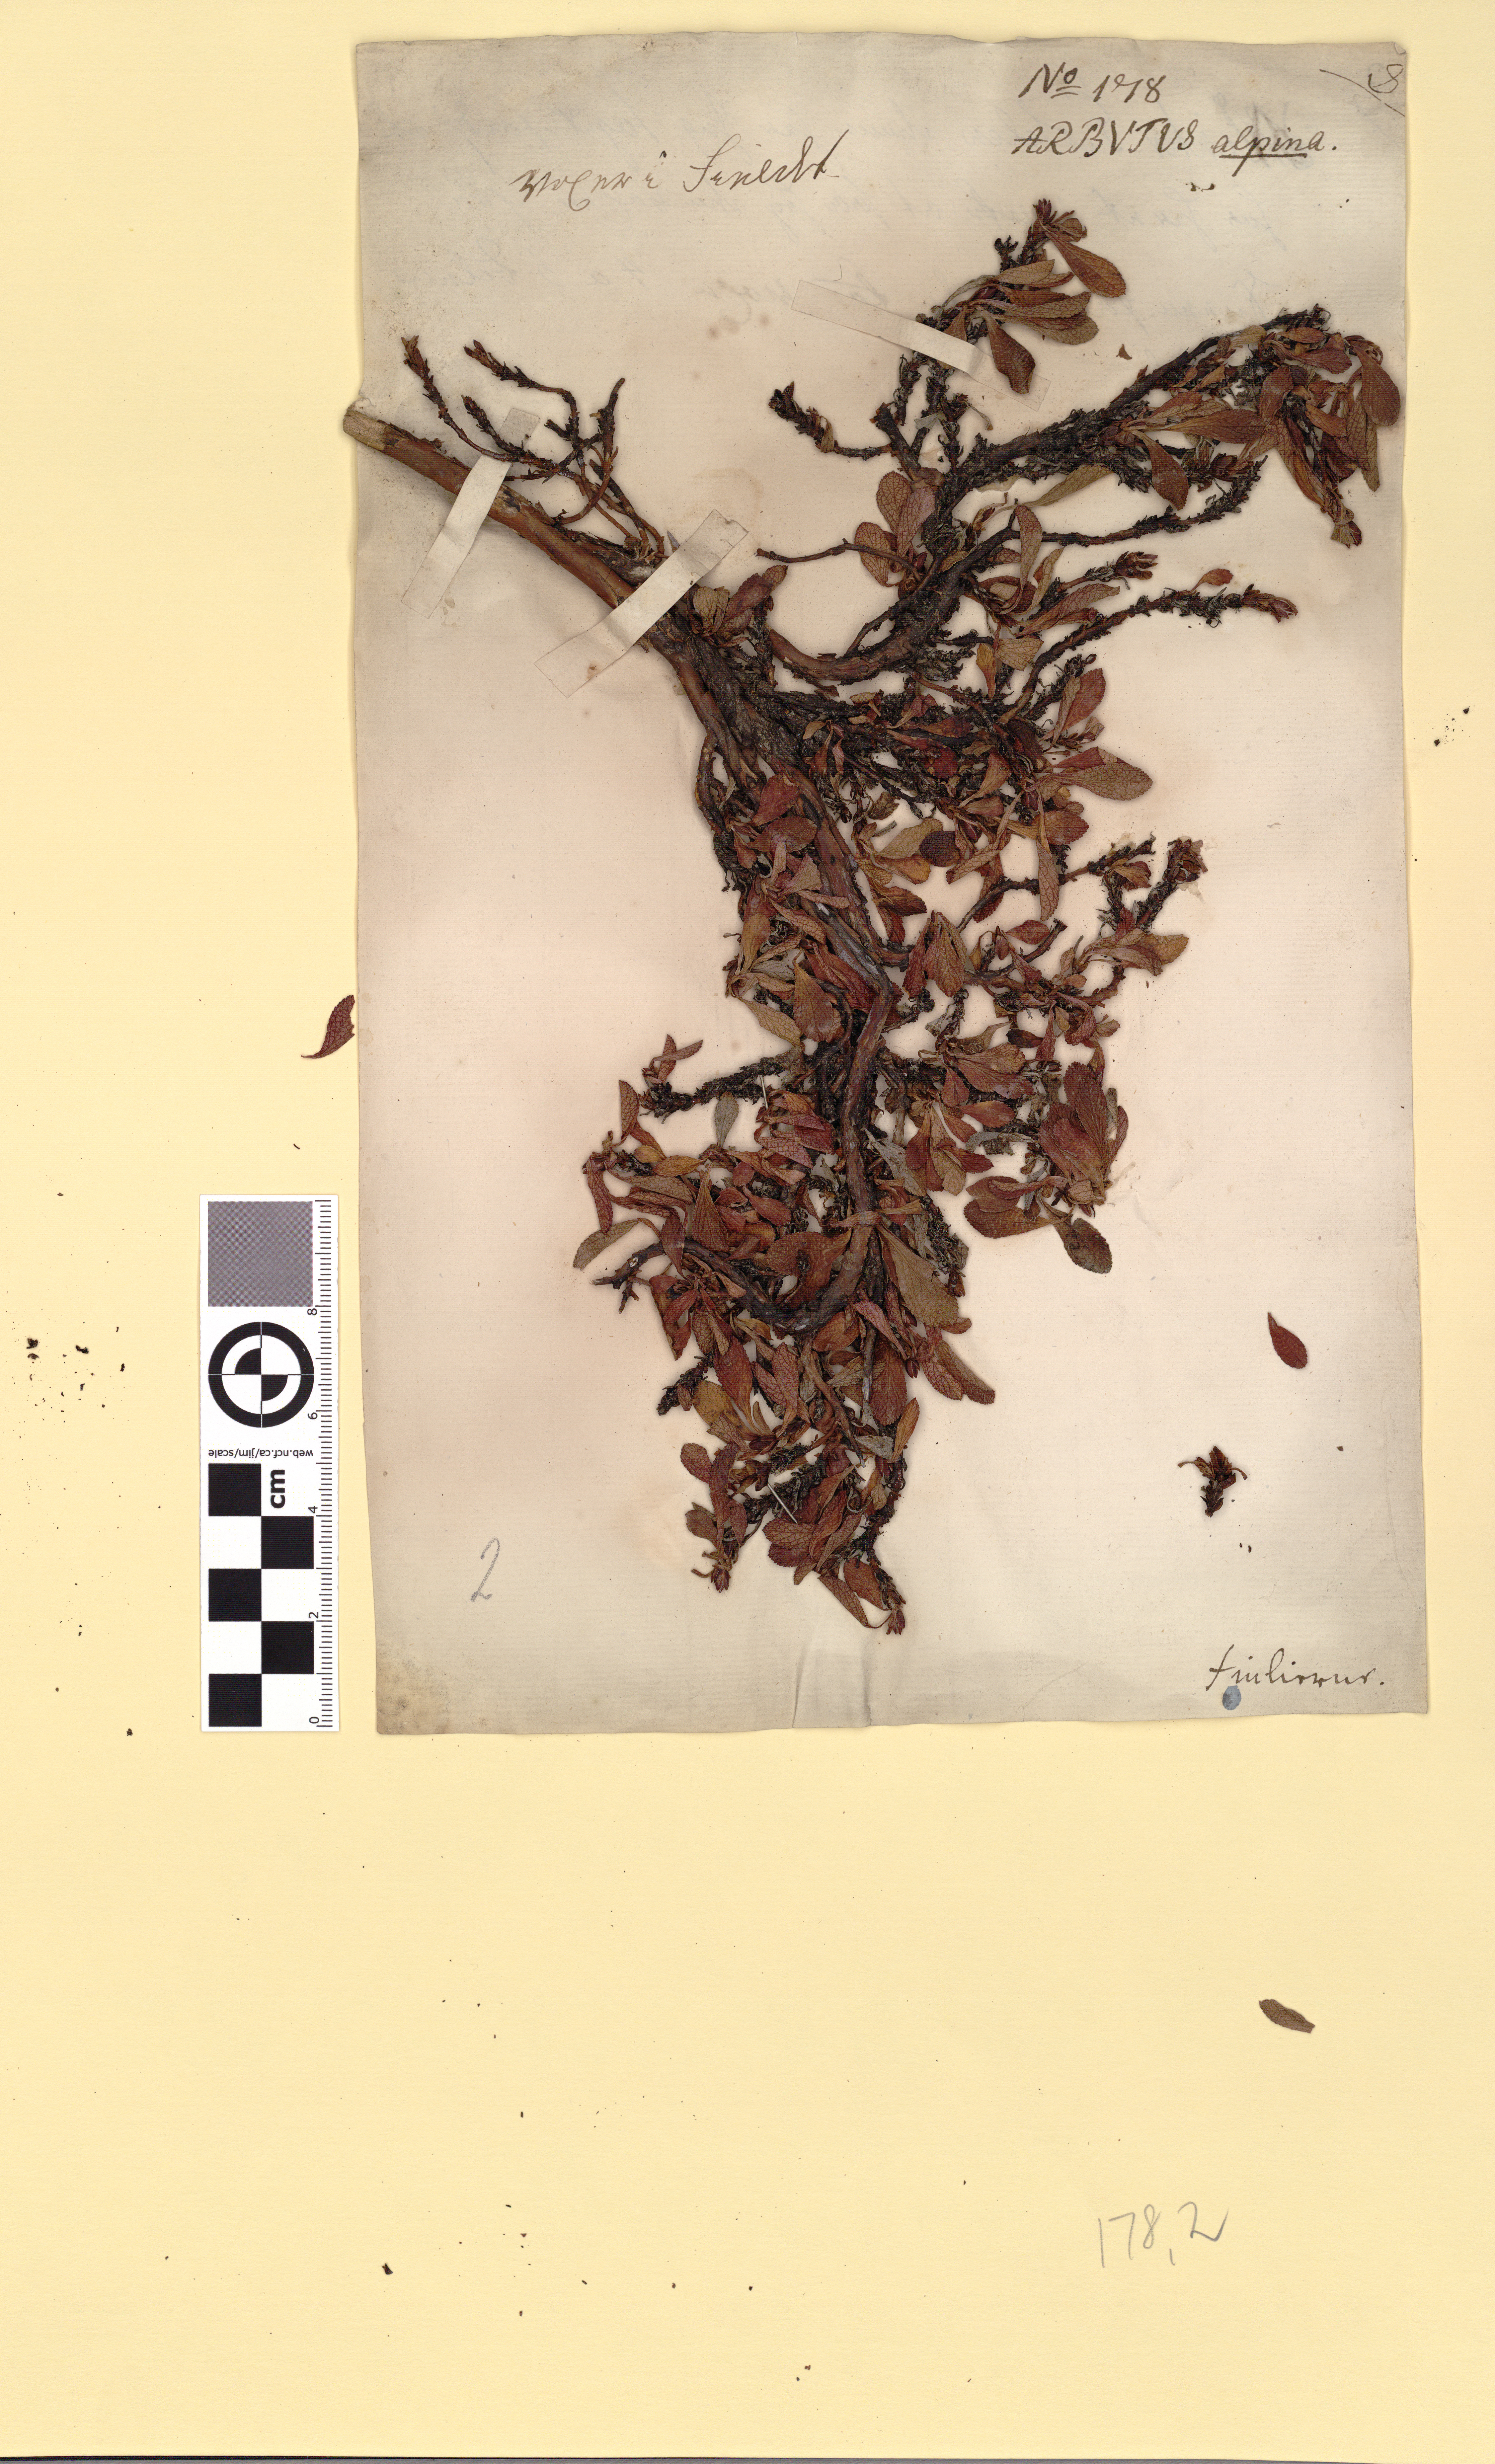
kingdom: Plantae
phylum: Tracheophyta
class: Magnoliopsida
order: Ericales
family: Ericaceae
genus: Arctostaphylos
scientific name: Arctostaphylos alpinus
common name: Alpine bearberry
